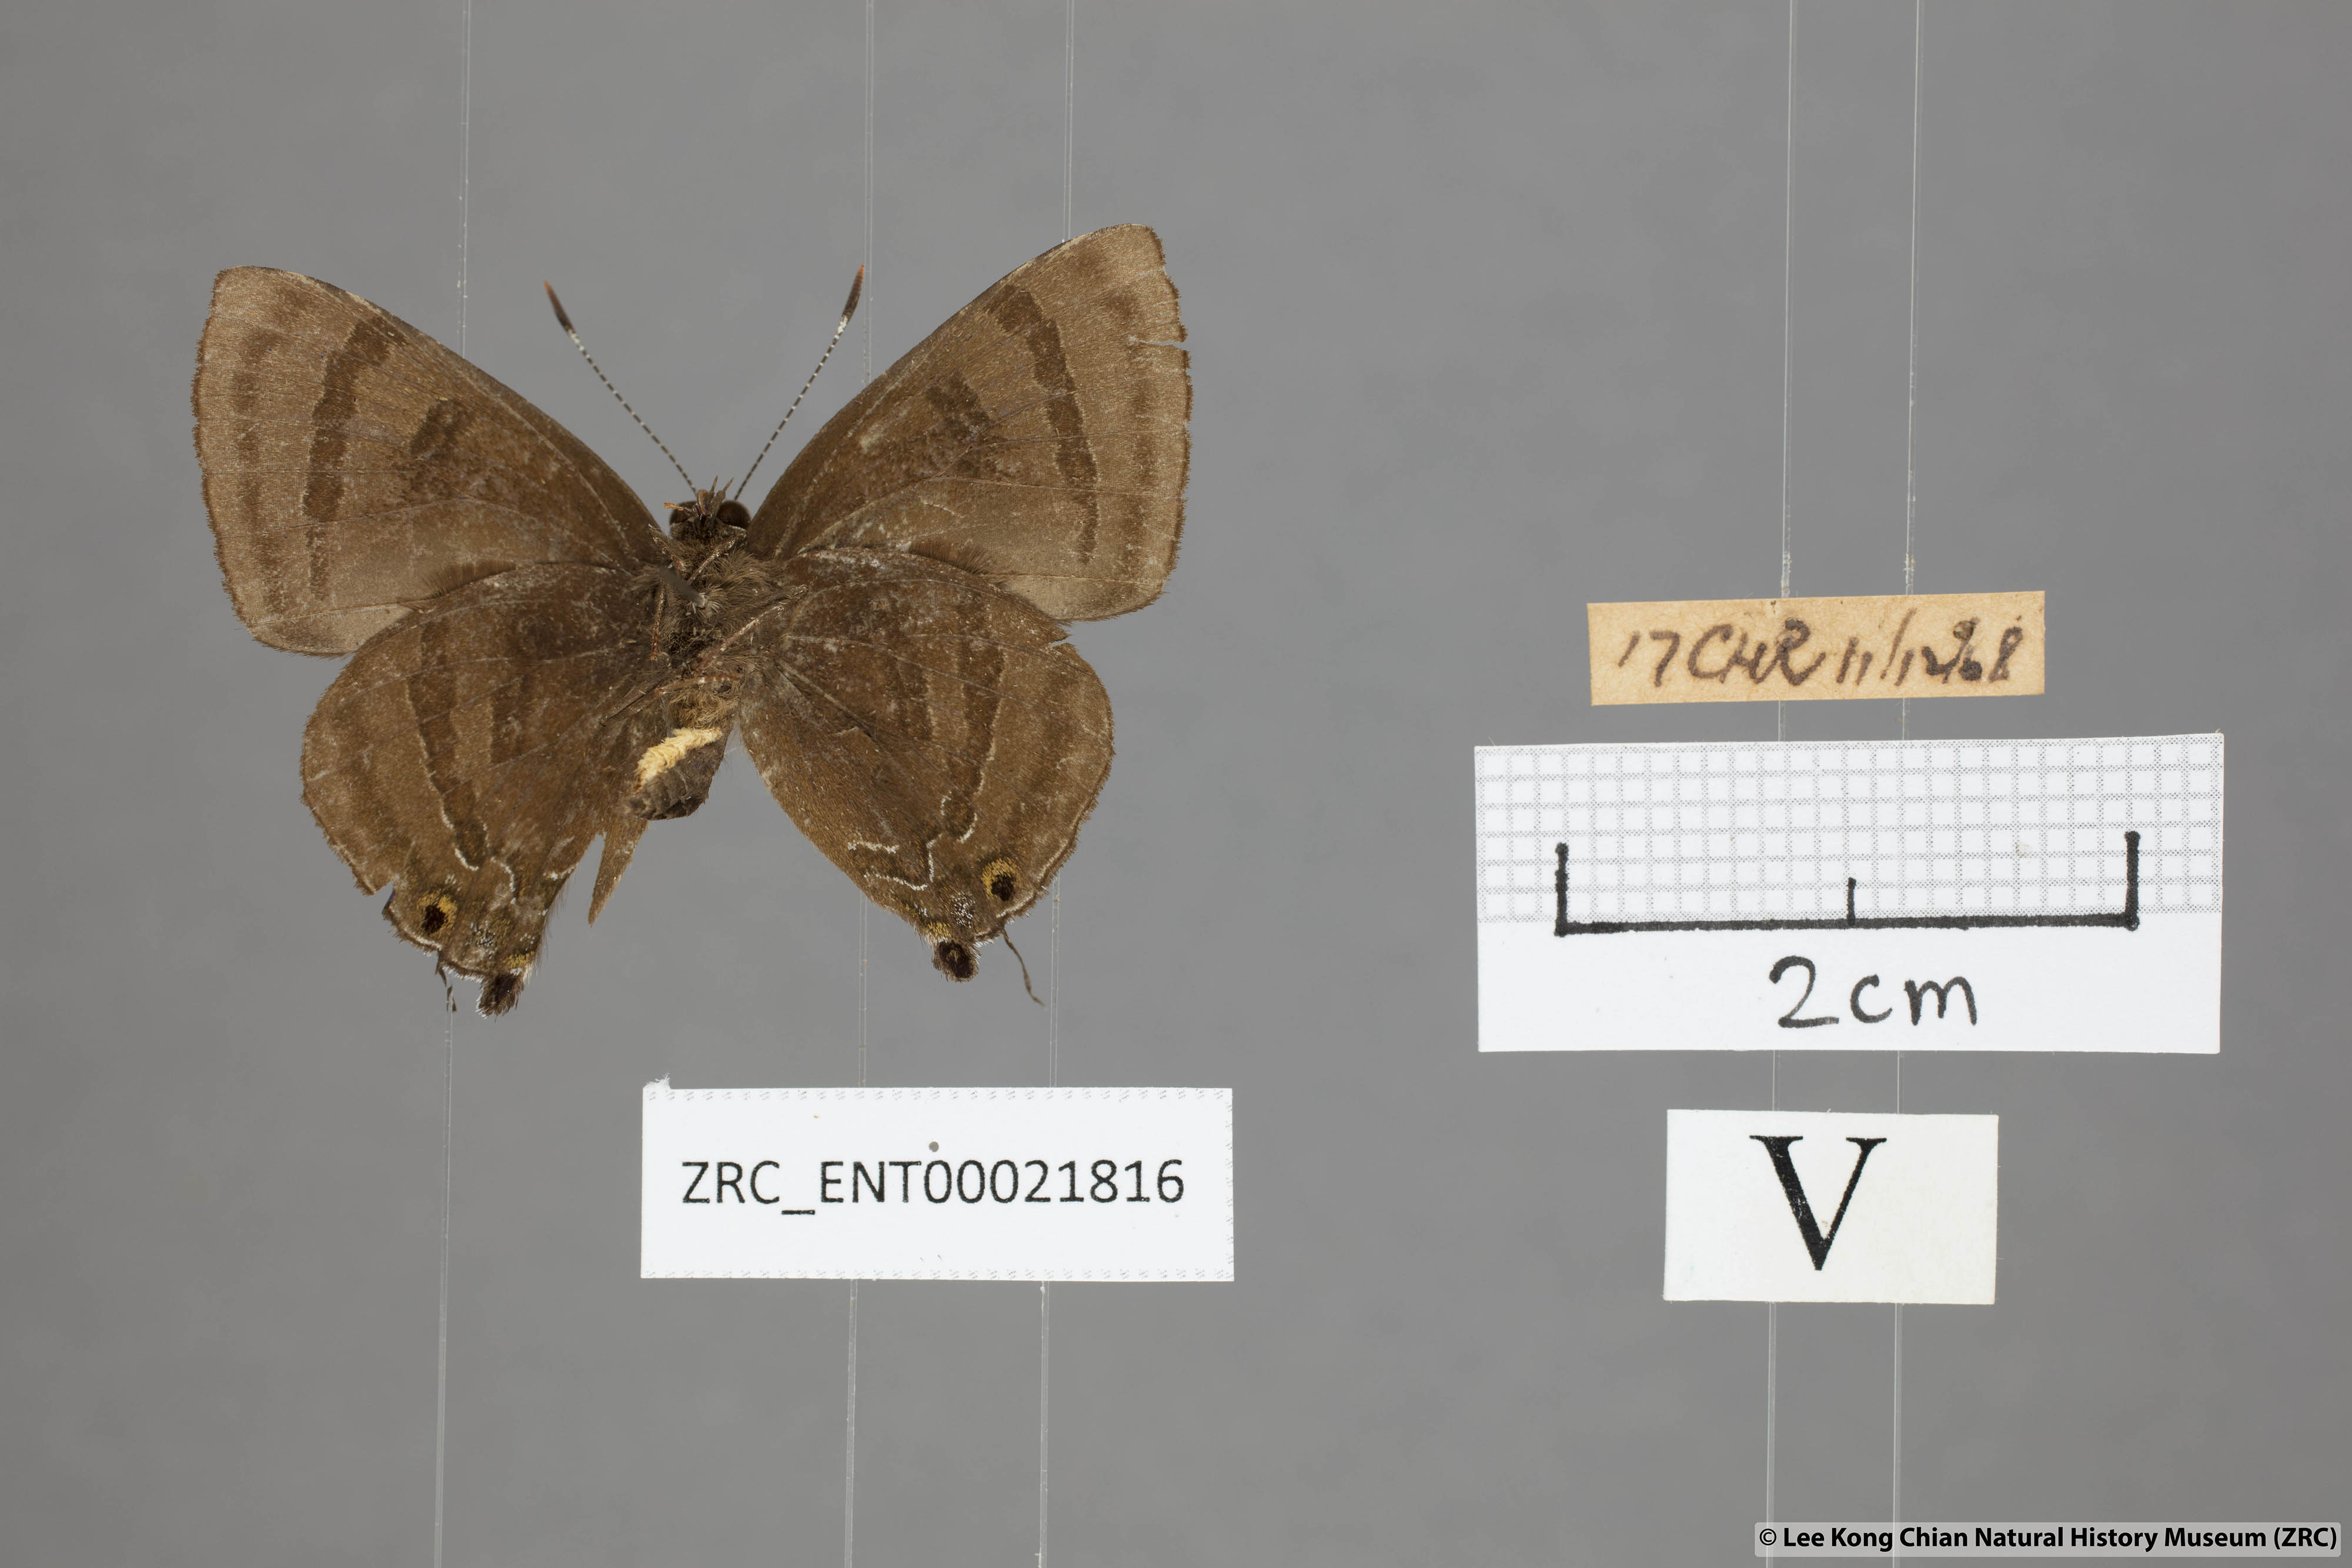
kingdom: Animalia
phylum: Arthropoda
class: Insecta
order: Lepidoptera
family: Lycaenidae
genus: Rapala
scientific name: Rapala rhoecus
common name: Brilliant flash
